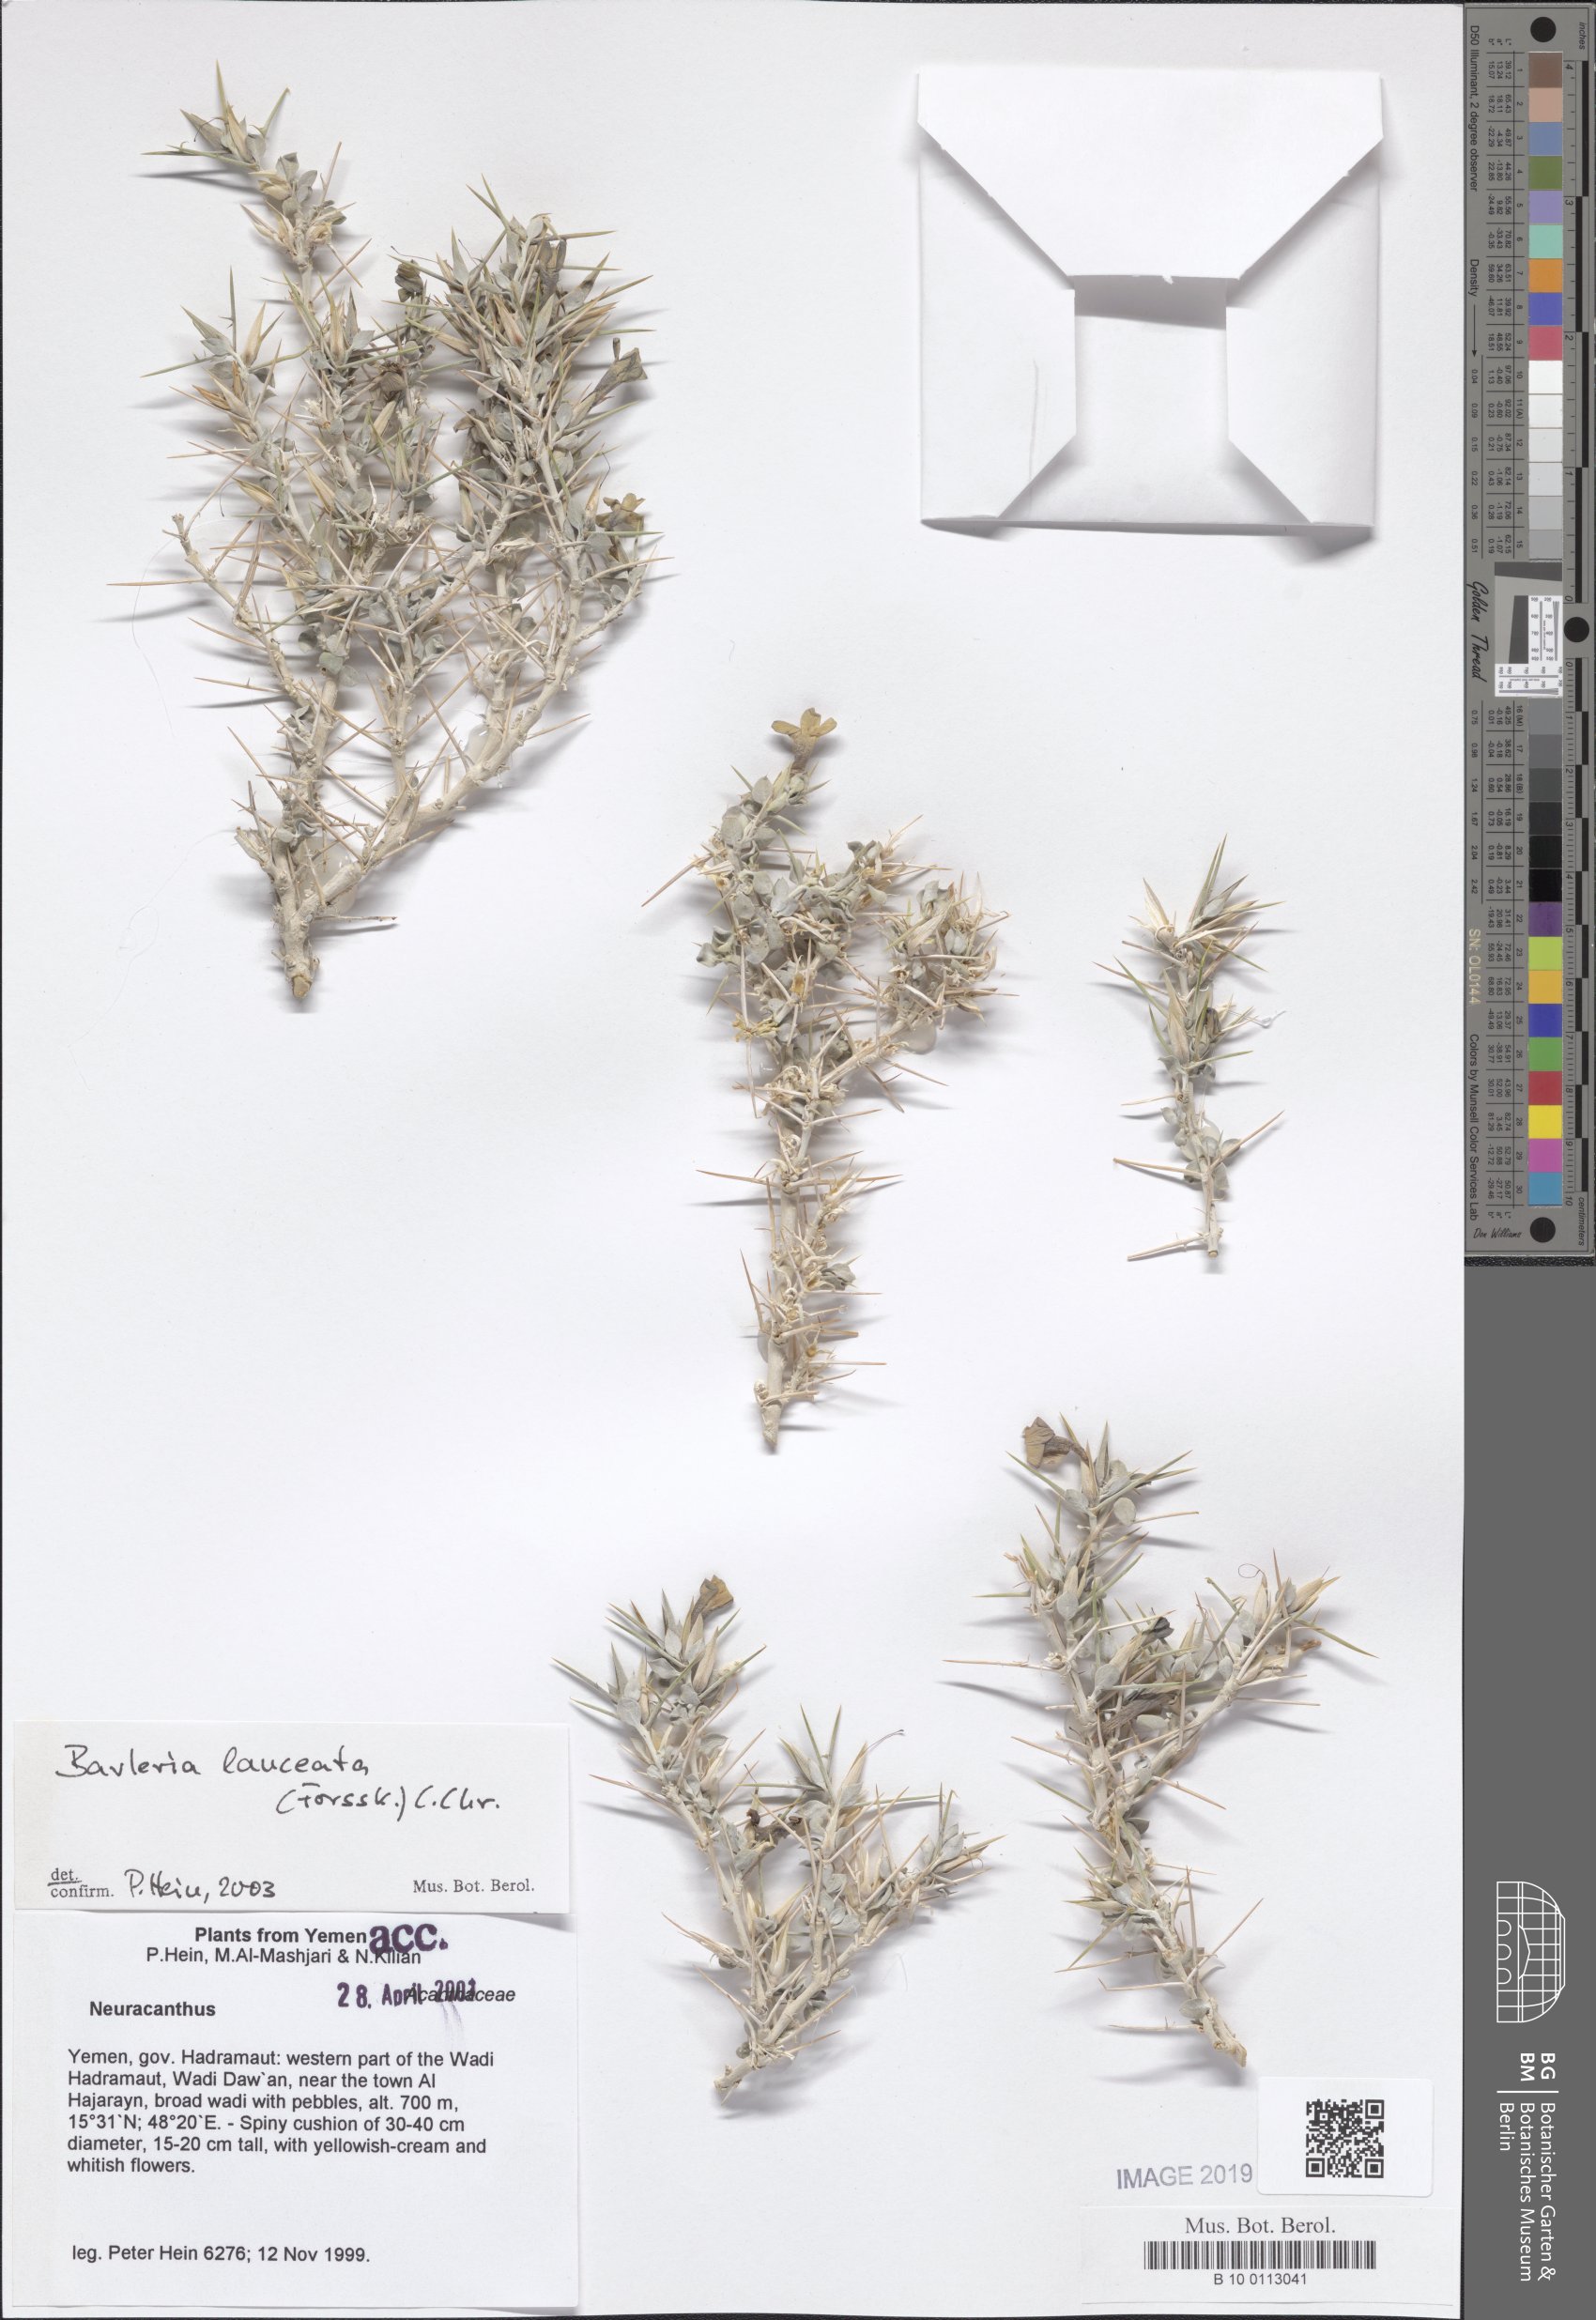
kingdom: Plantae
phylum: Tracheophyta
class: Magnoliopsida
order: Lamiales
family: Acanthaceae
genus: Barleria
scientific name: Barleria lanceata
